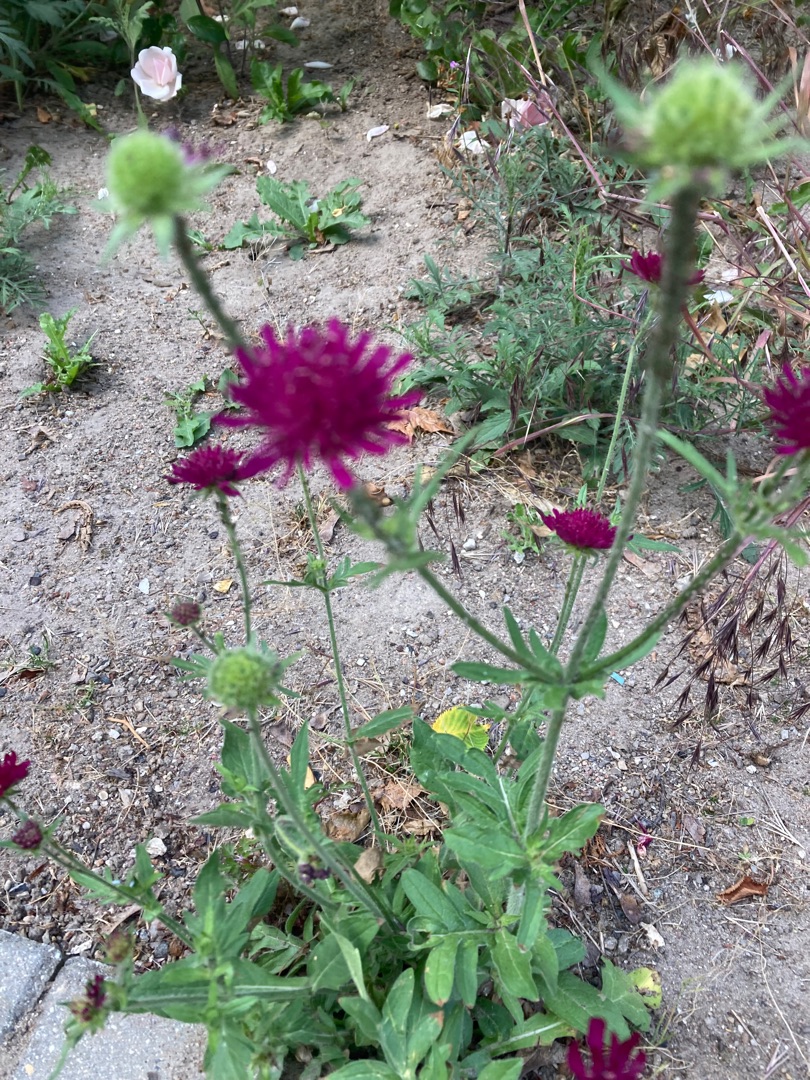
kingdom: Plantae
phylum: Tracheophyta
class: Magnoliopsida
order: Dipsacales
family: Caprifoliaceae
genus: Knautia
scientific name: Knautia arvensis
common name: Blåhat
